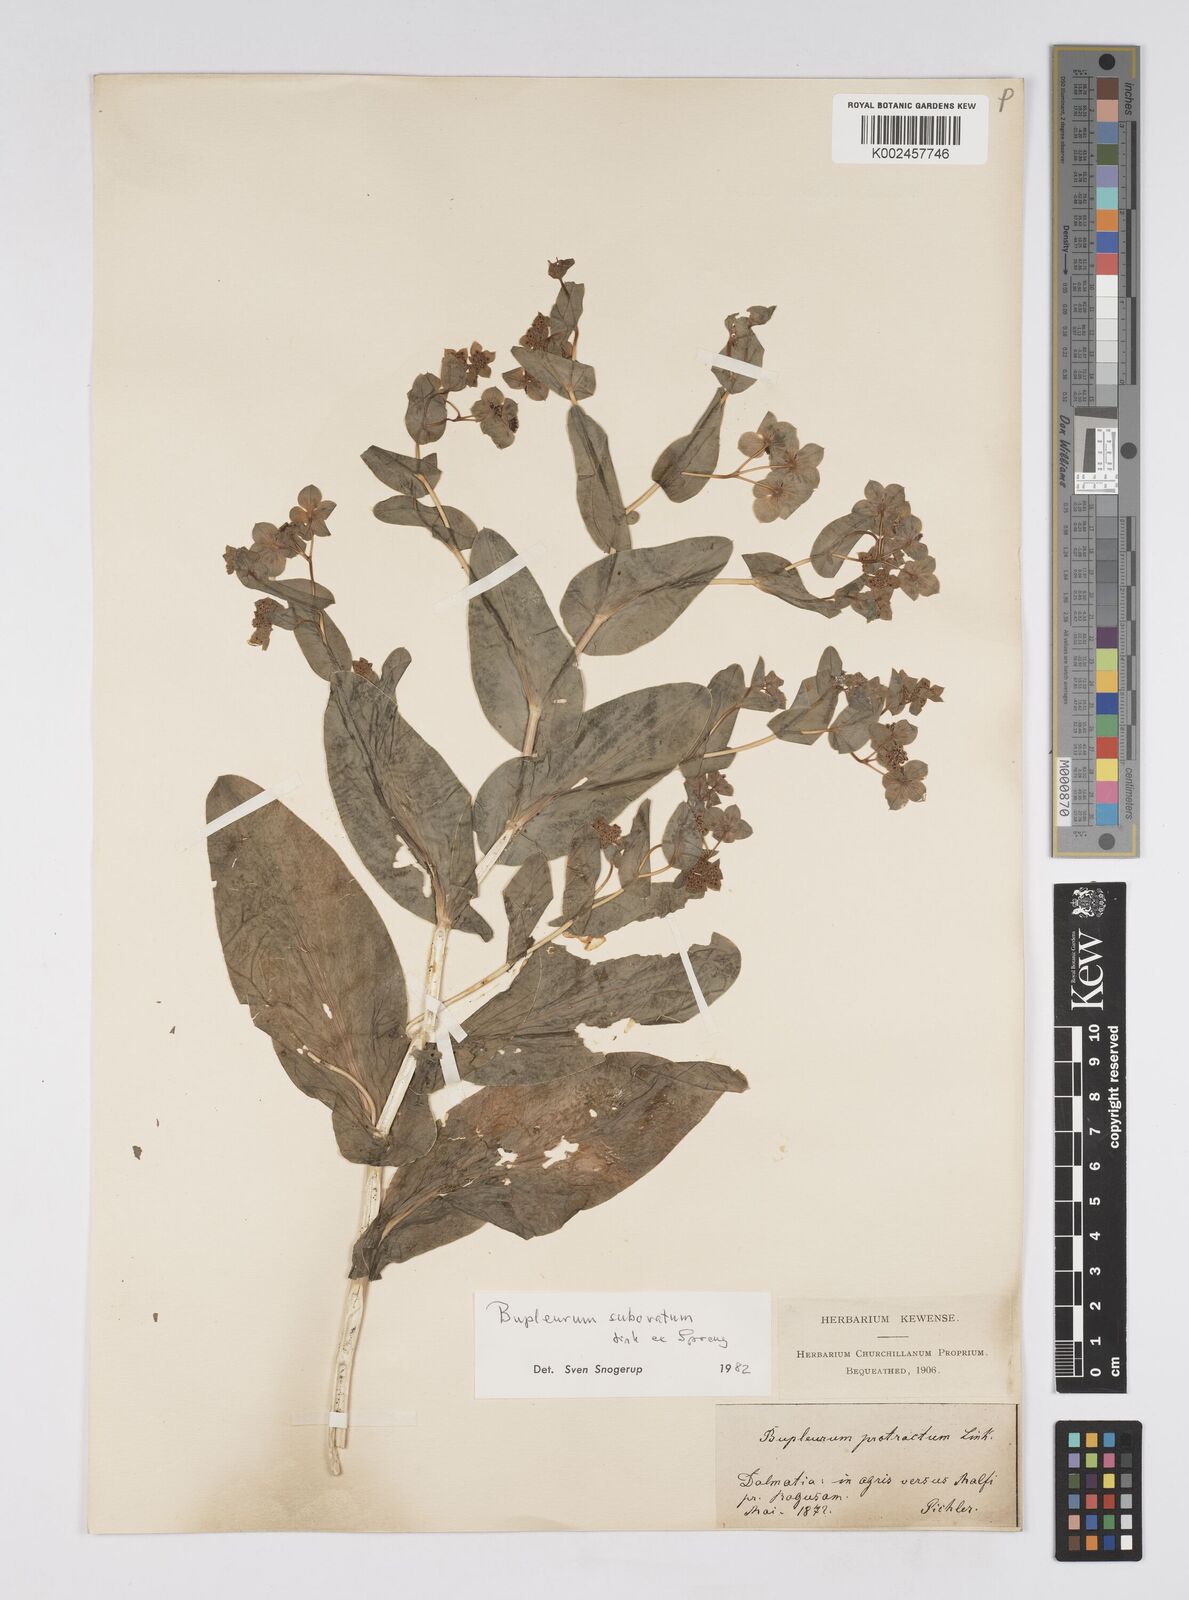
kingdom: Plantae
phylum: Tracheophyta
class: Magnoliopsida
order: Apiales
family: Apiaceae
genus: Bupleurum
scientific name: Bupleurum subovatum
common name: False thorow-wax
